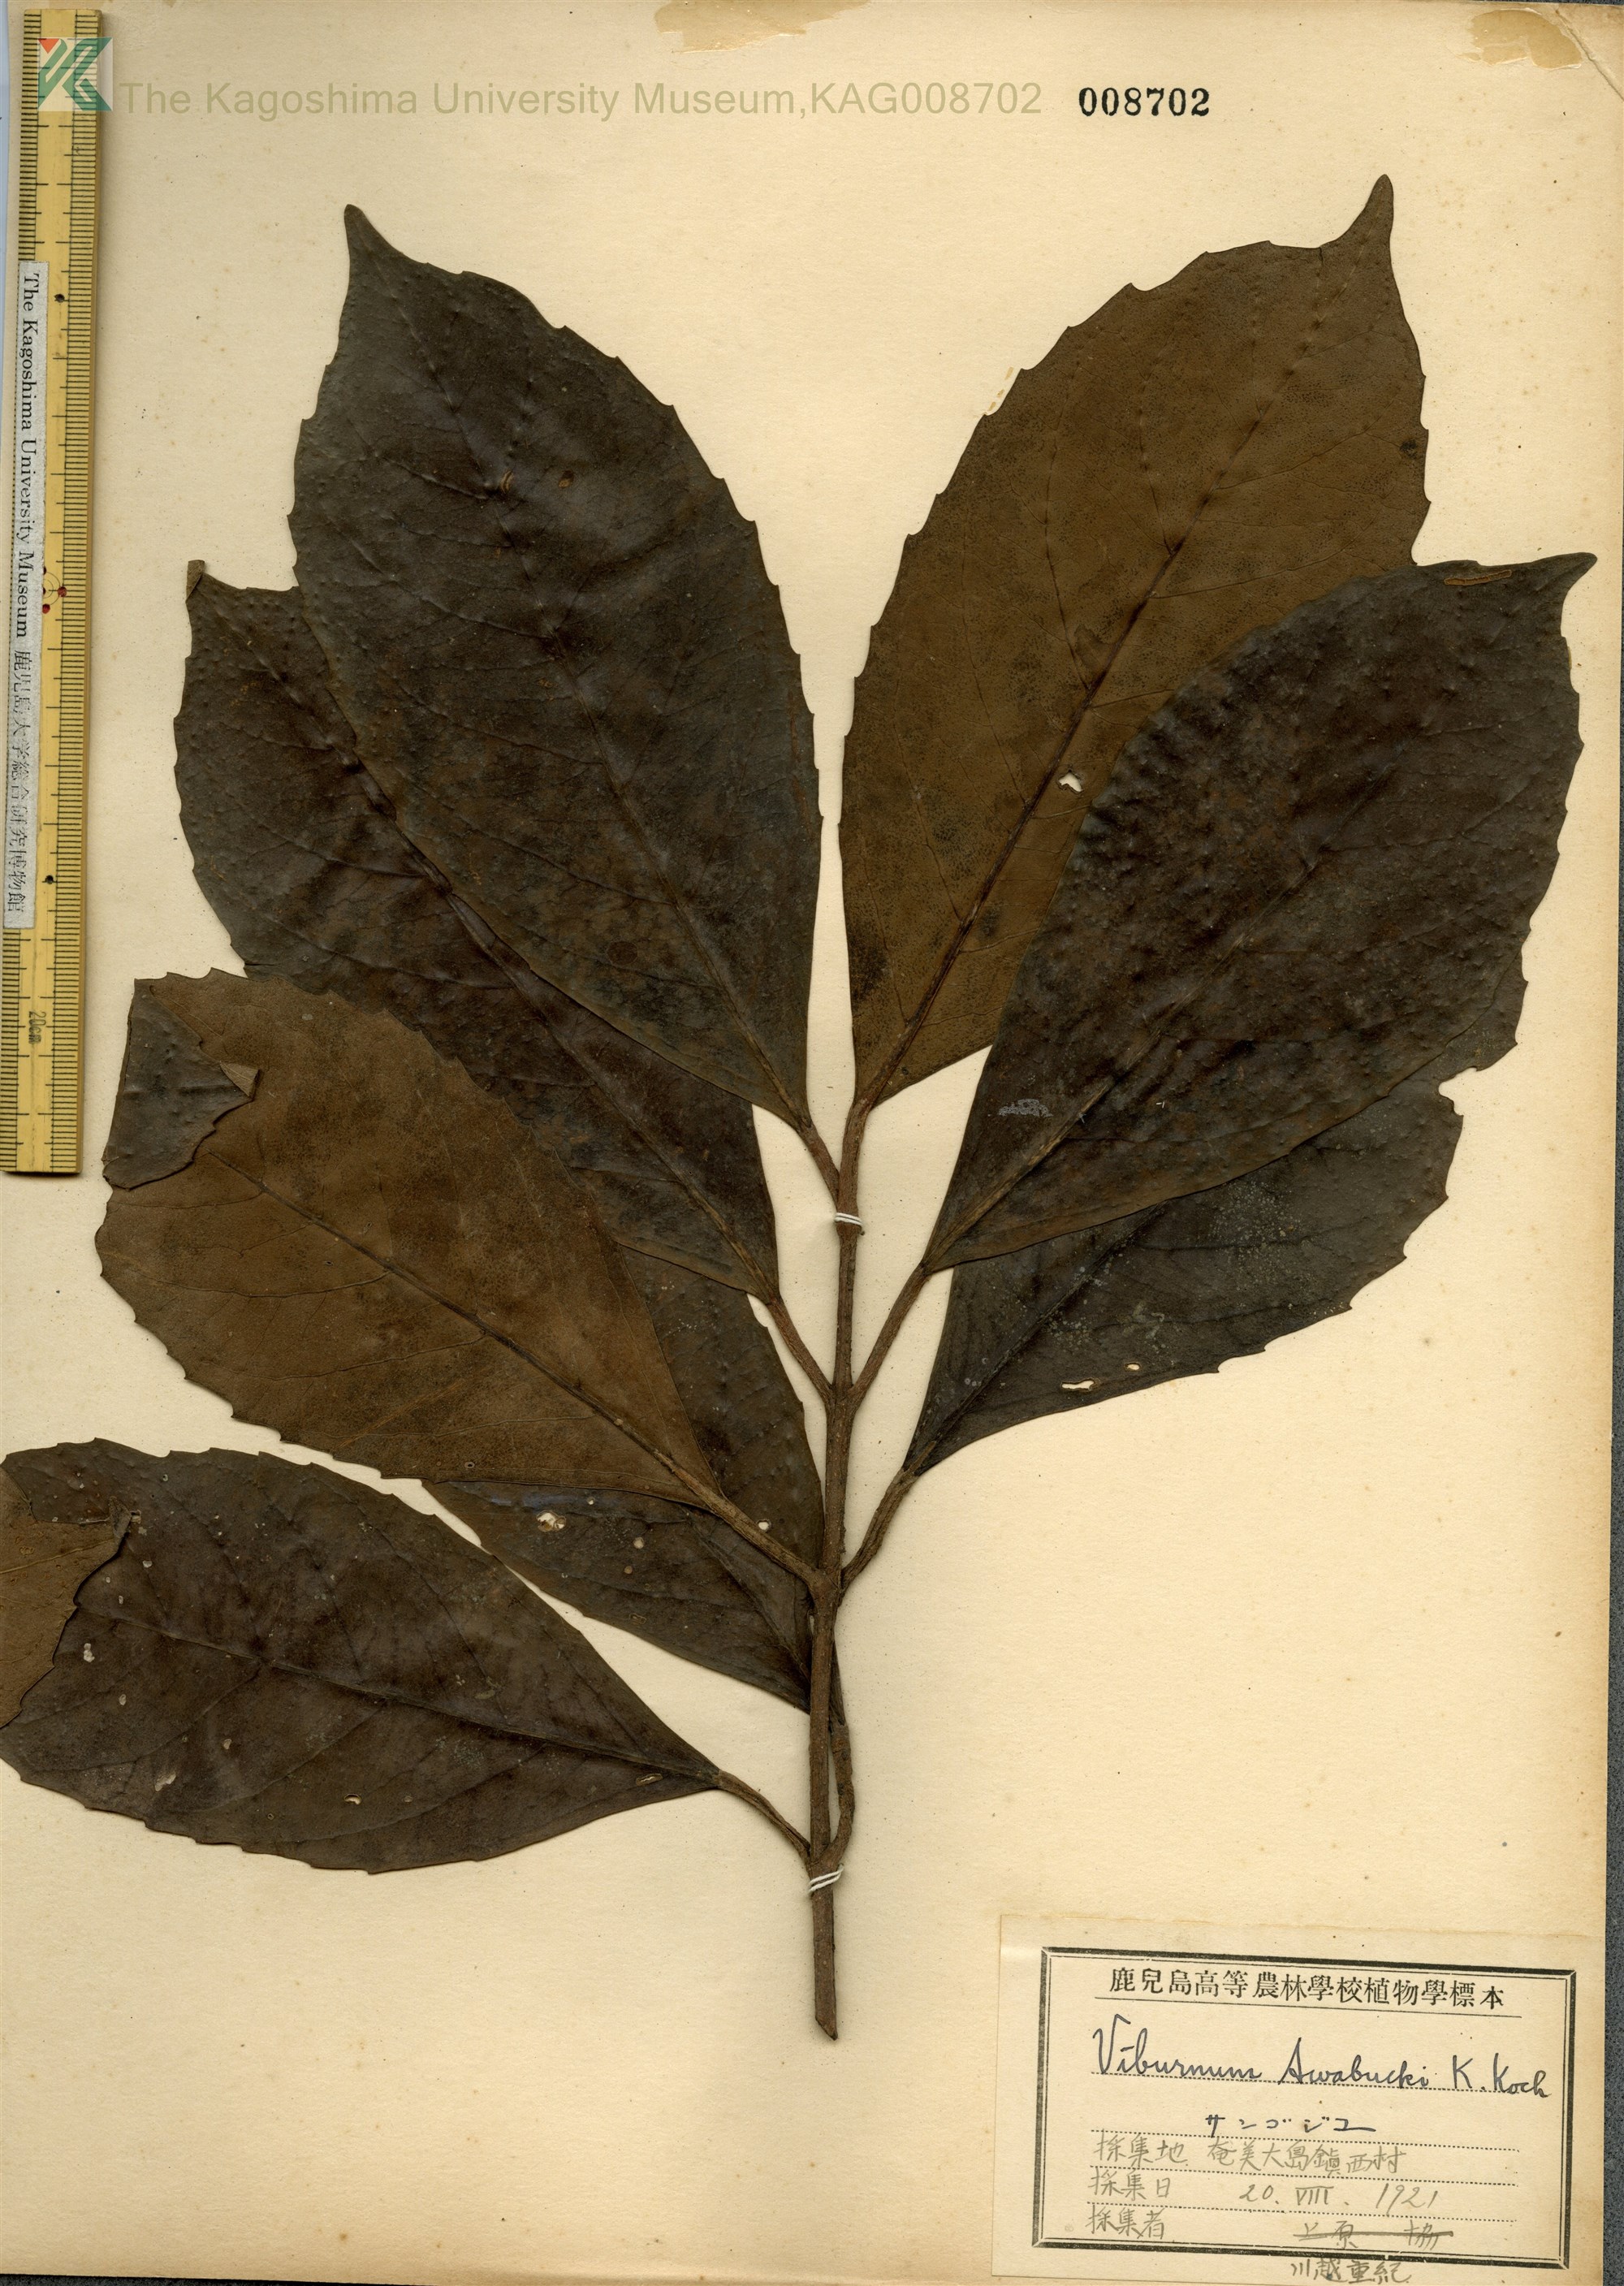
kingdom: Plantae
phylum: Tracheophyta
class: Magnoliopsida
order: Dipsacales
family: Viburnaceae
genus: Viburnum
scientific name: Viburnum odoratissimum
